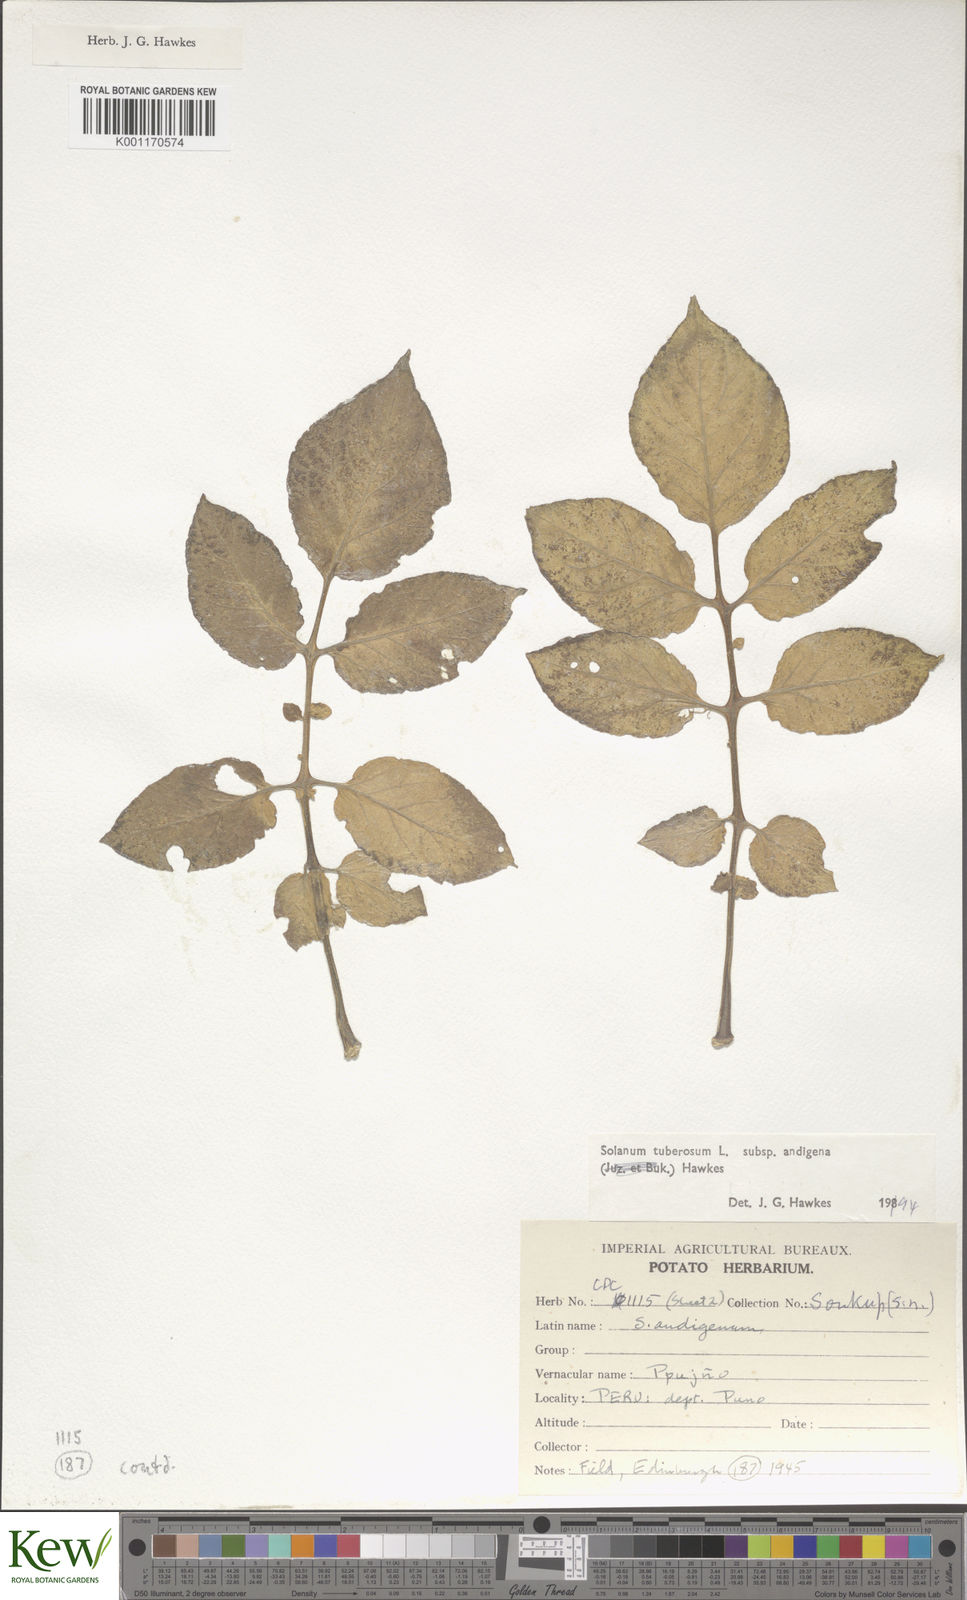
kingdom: Plantae
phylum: Tracheophyta
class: Magnoliopsida
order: Solanales
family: Solanaceae
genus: Solanum
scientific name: Solanum tuberosum
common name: Potato
